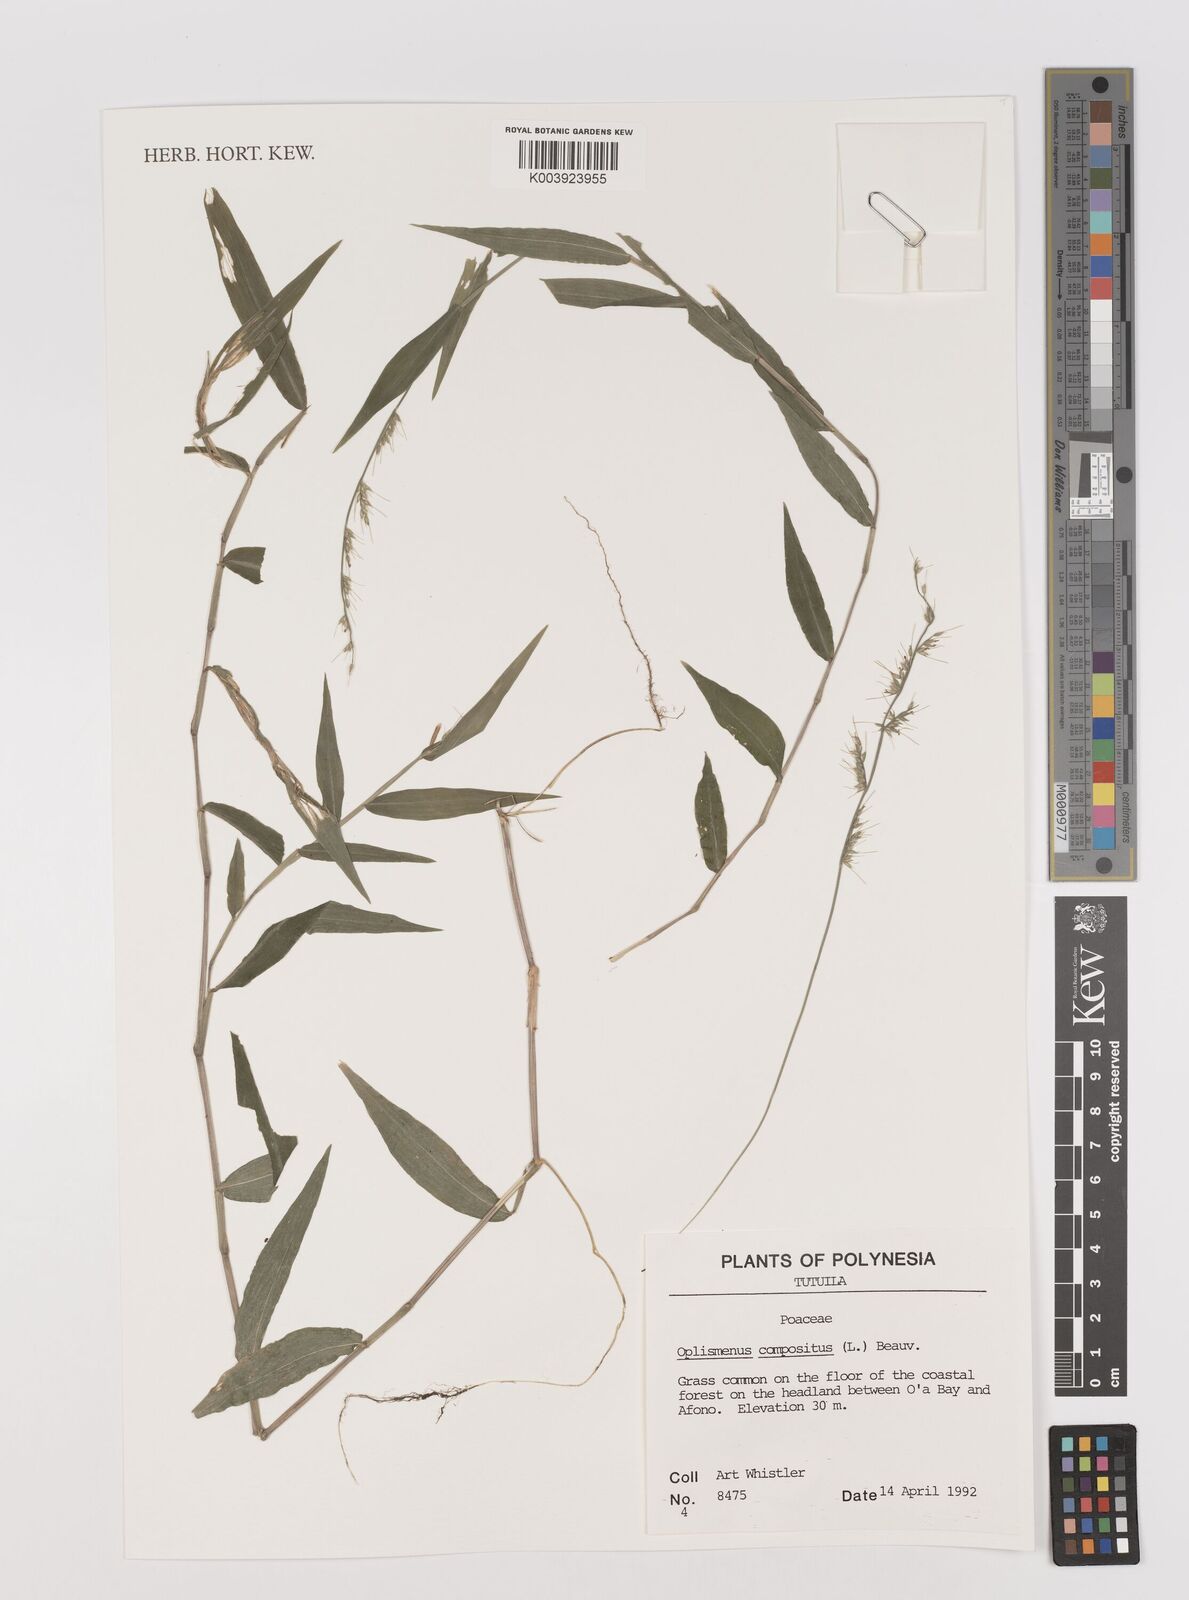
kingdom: Plantae
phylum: Tracheophyta
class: Liliopsida
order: Poales
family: Poaceae
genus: Oplismenus
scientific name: Oplismenus compositus
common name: Running mountain grass
